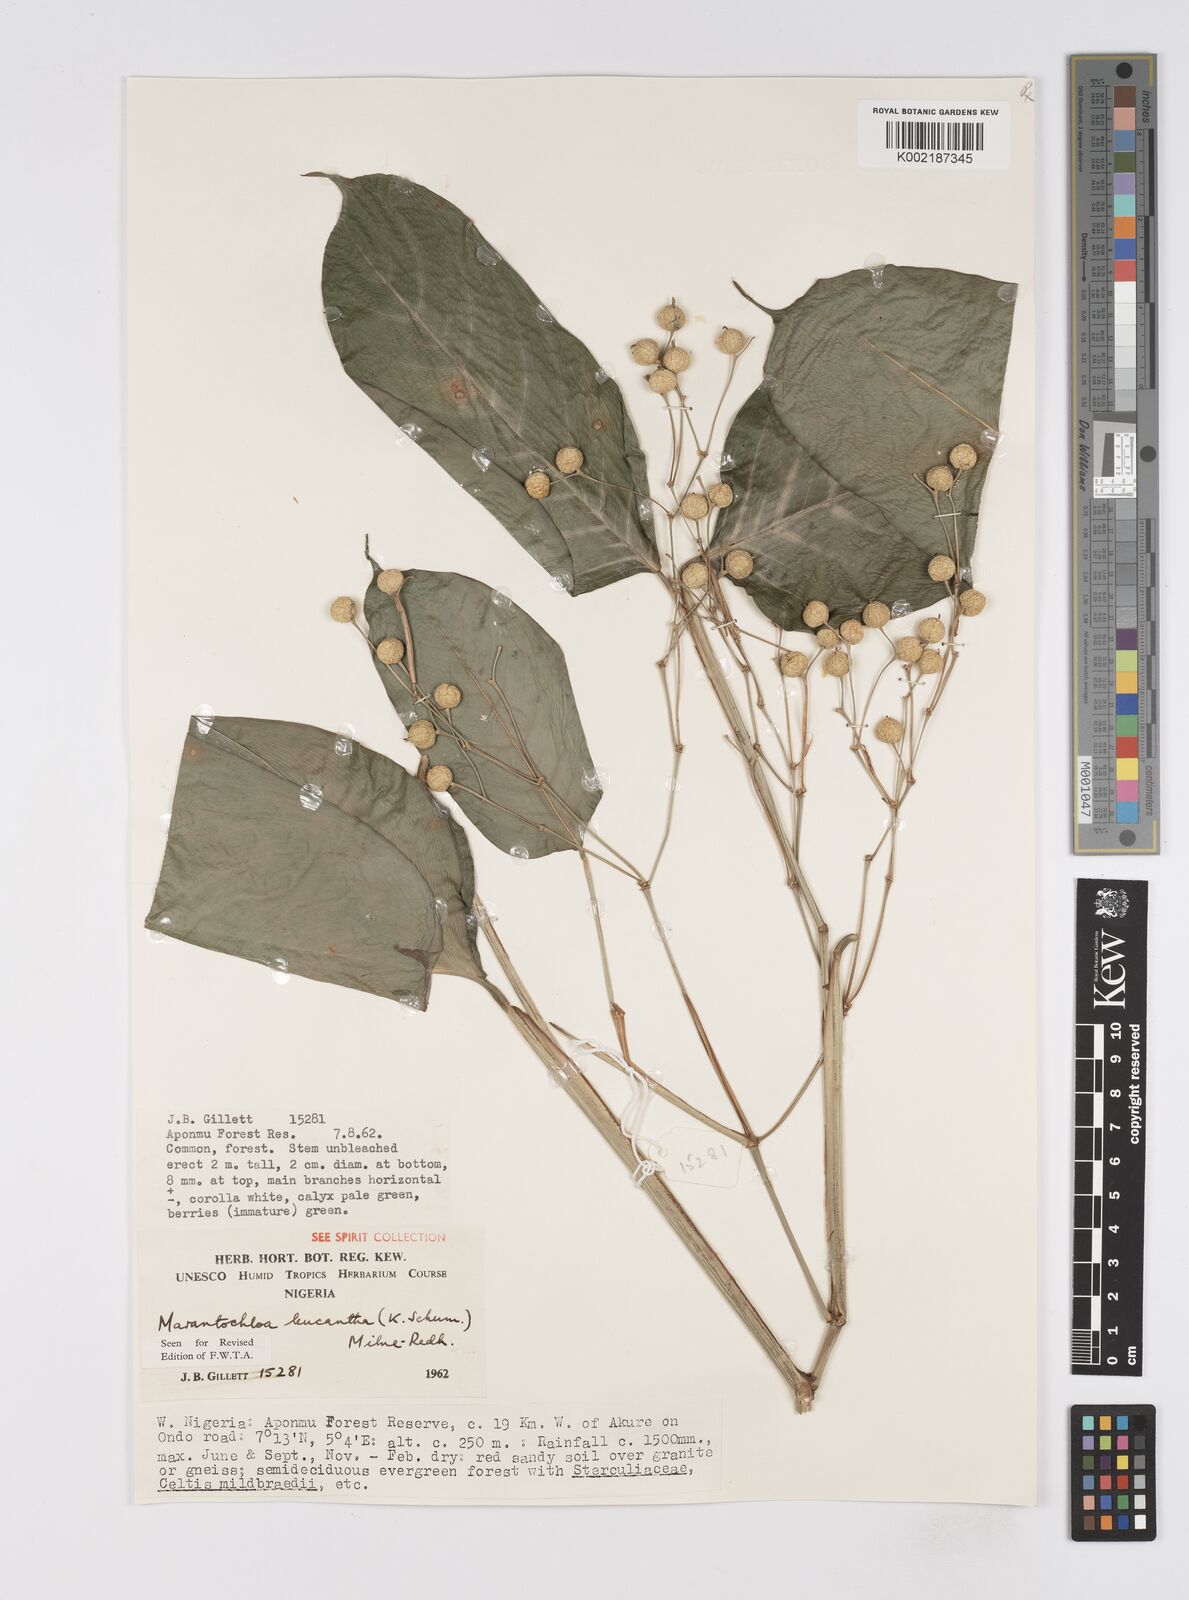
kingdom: Plantae
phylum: Tracheophyta
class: Liliopsida
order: Zingiberales
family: Marantaceae
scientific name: Marantaceae
